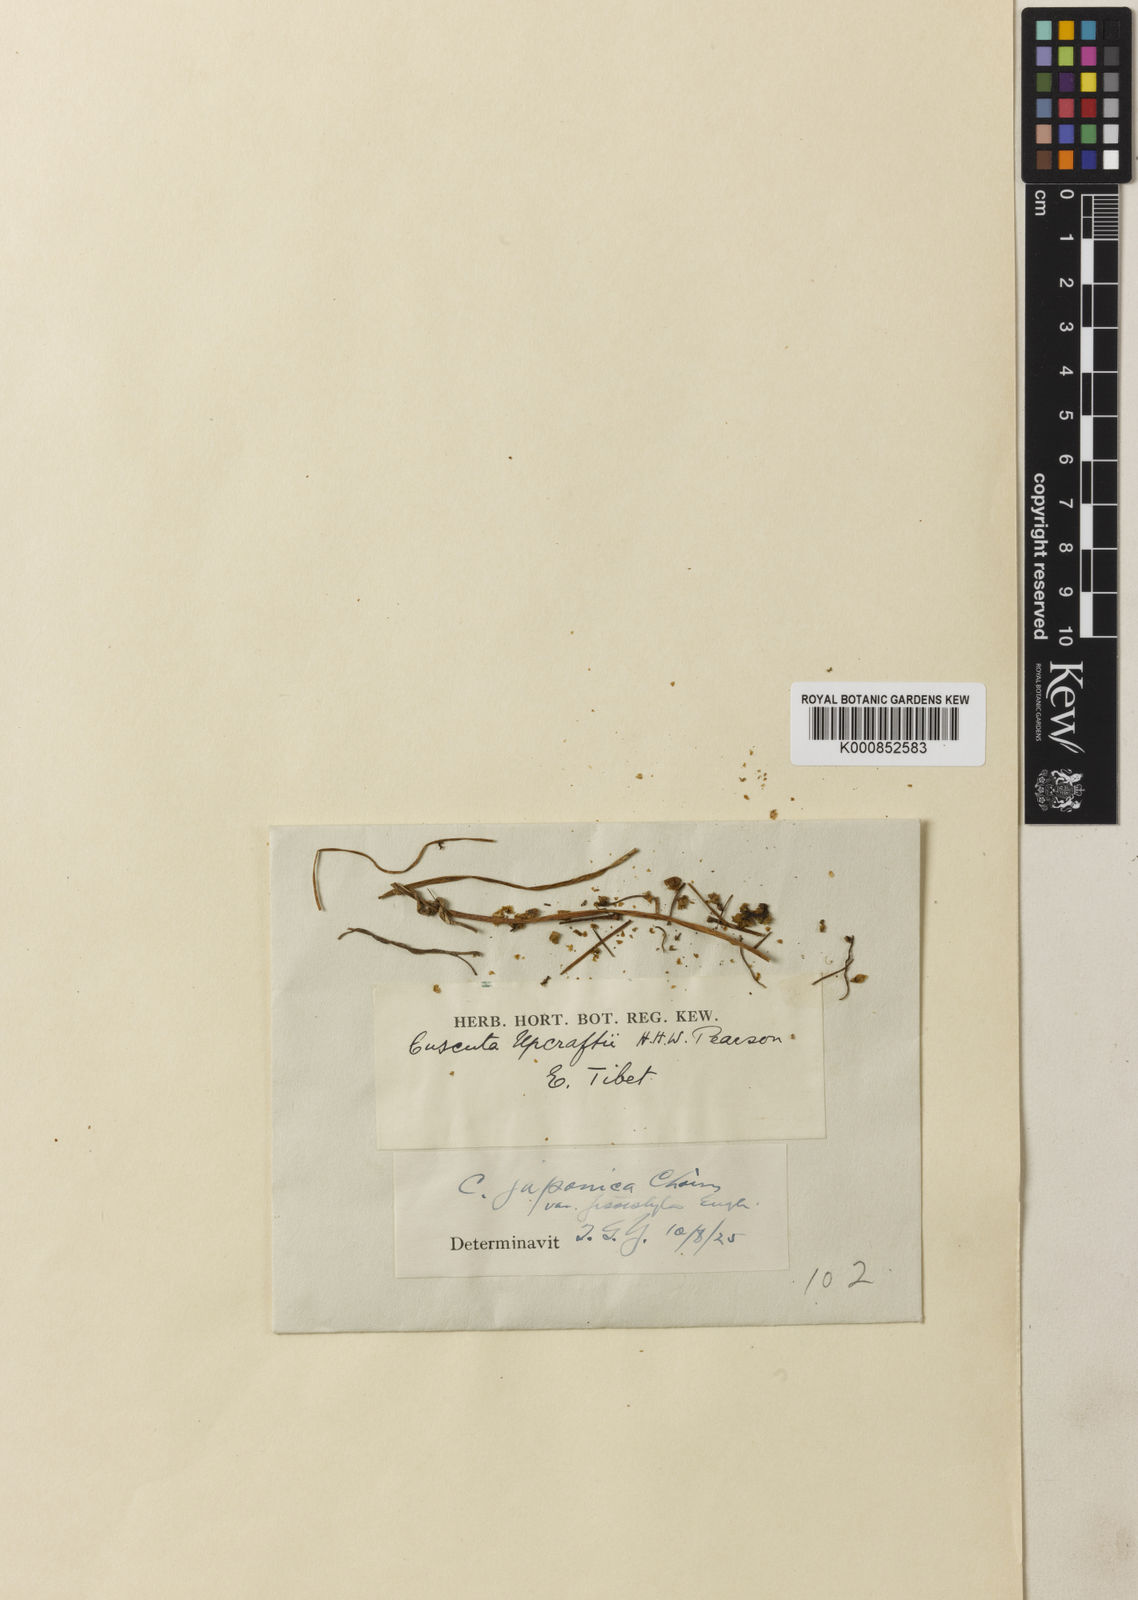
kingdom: Plantae
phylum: Tracheophyta
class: Magnoliopsida
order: Solanales
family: Convolvulaceae
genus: Cuscuta
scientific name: Cuscuta japonica
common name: Japanese dodder
